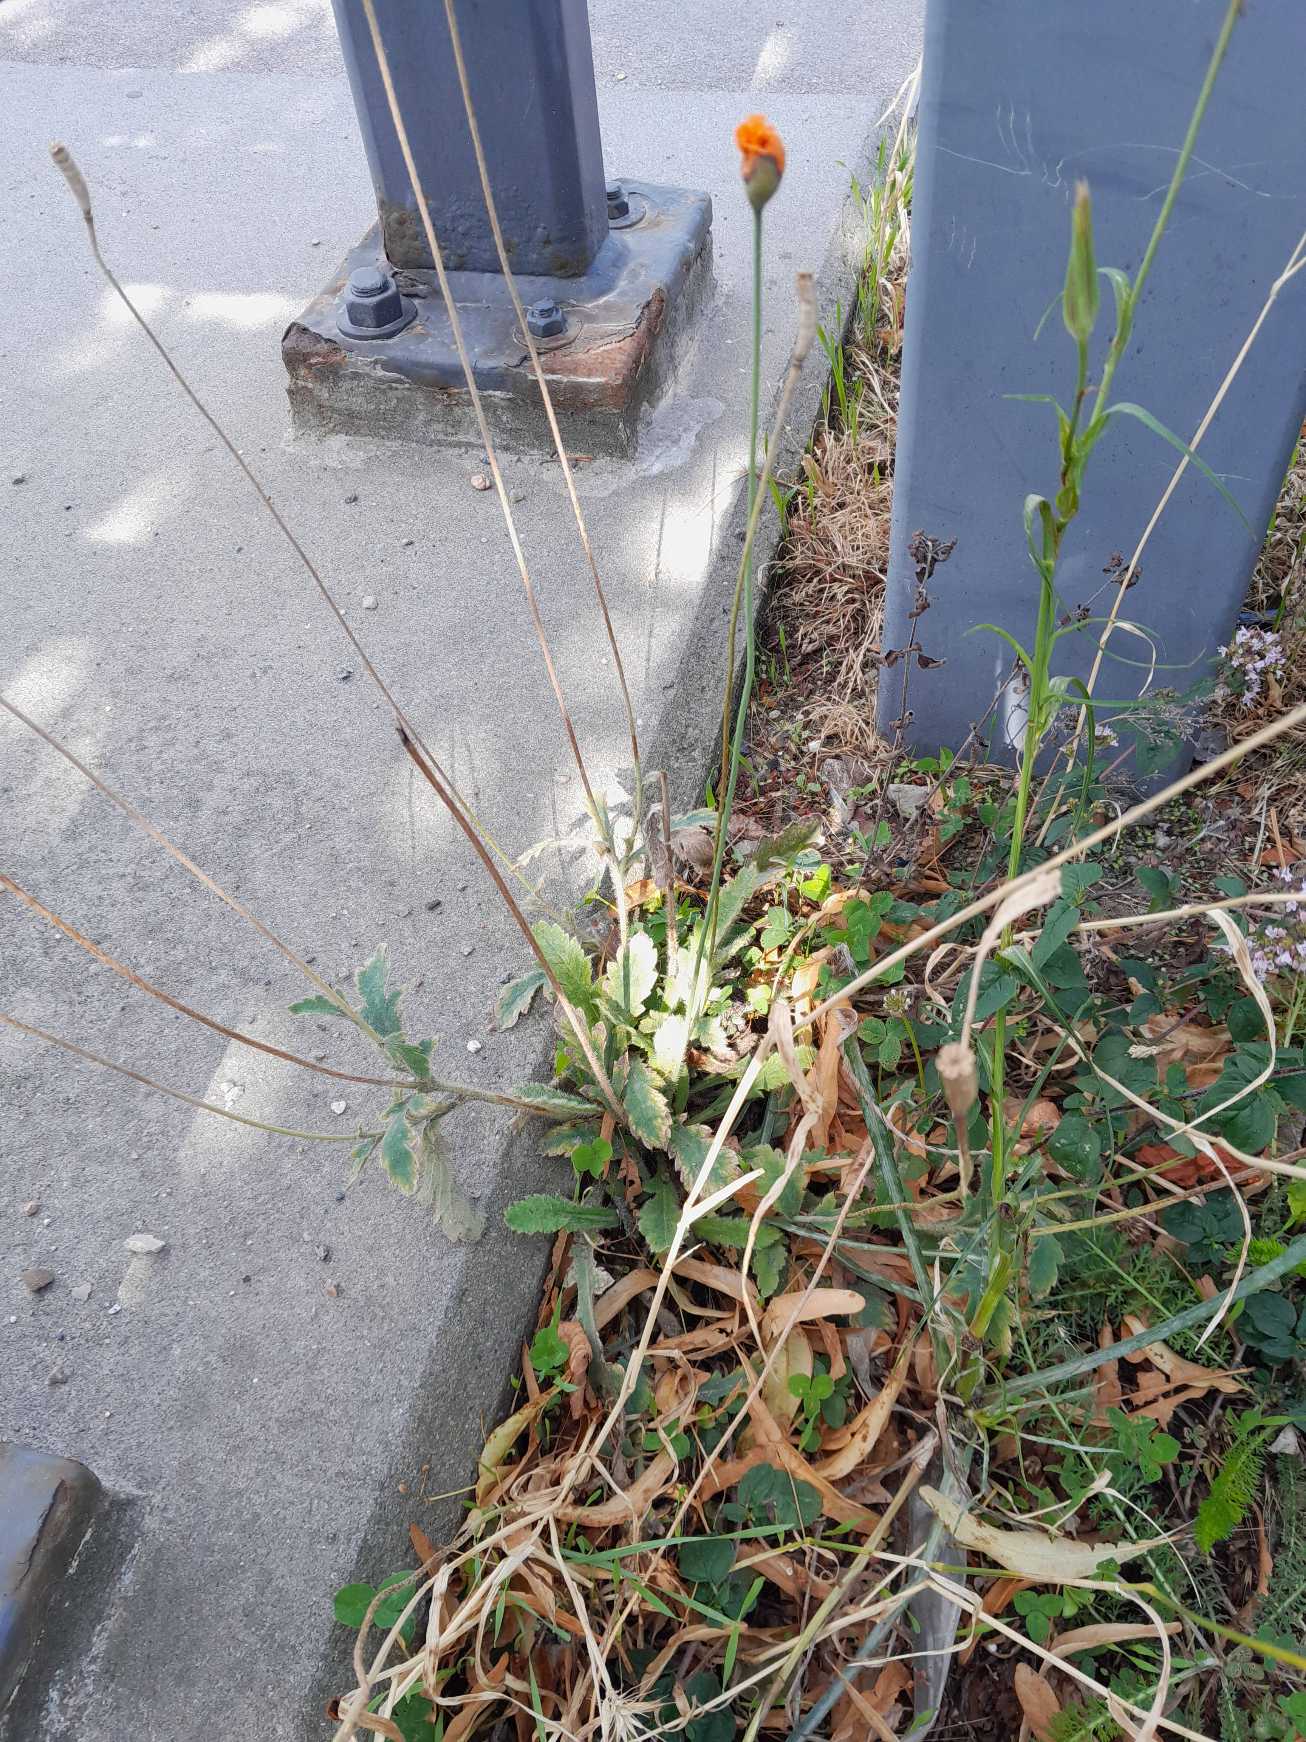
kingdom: Plantae
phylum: Tracheophyta
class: Magnoliopsida
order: Ranunculales
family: Papaveraceae
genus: Papaver
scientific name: Papaver atlanticum
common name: Atlas-valmue
